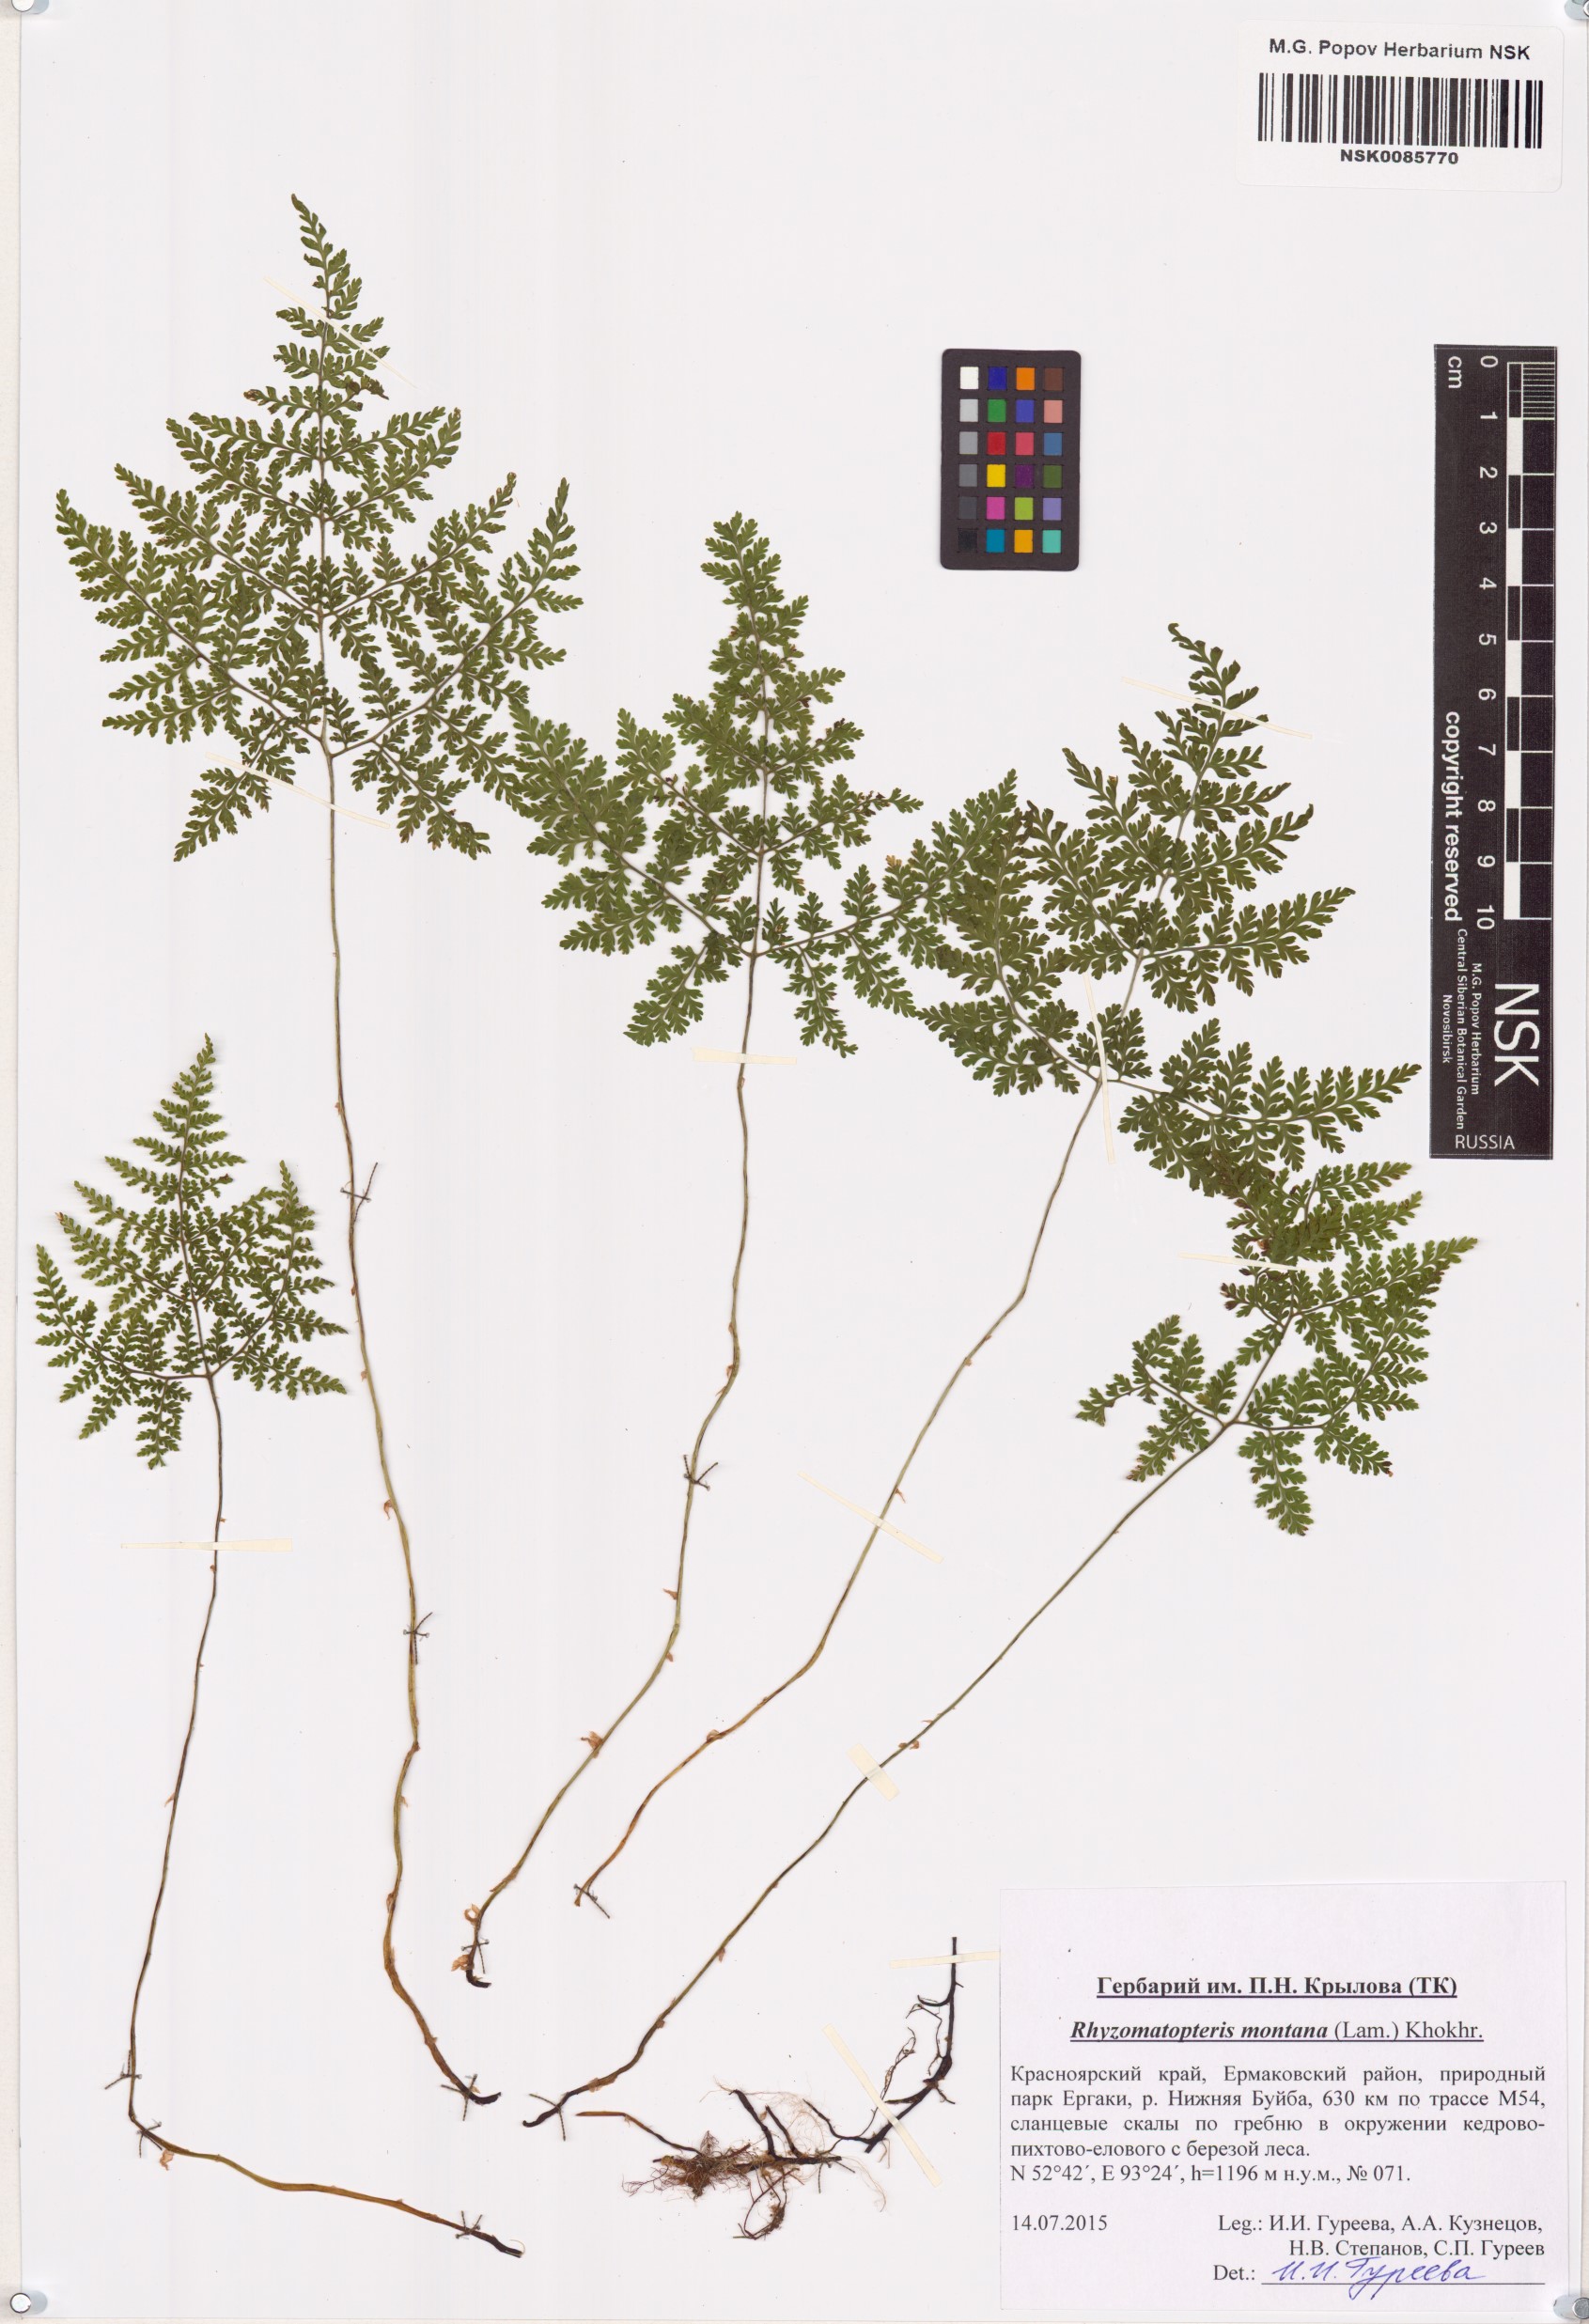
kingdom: Plantae
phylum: Tracheophyta
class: Polypodiopsida
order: Polypodiales
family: Cystopteridaceae
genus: Cystopteris
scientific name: Cystopteris montana
